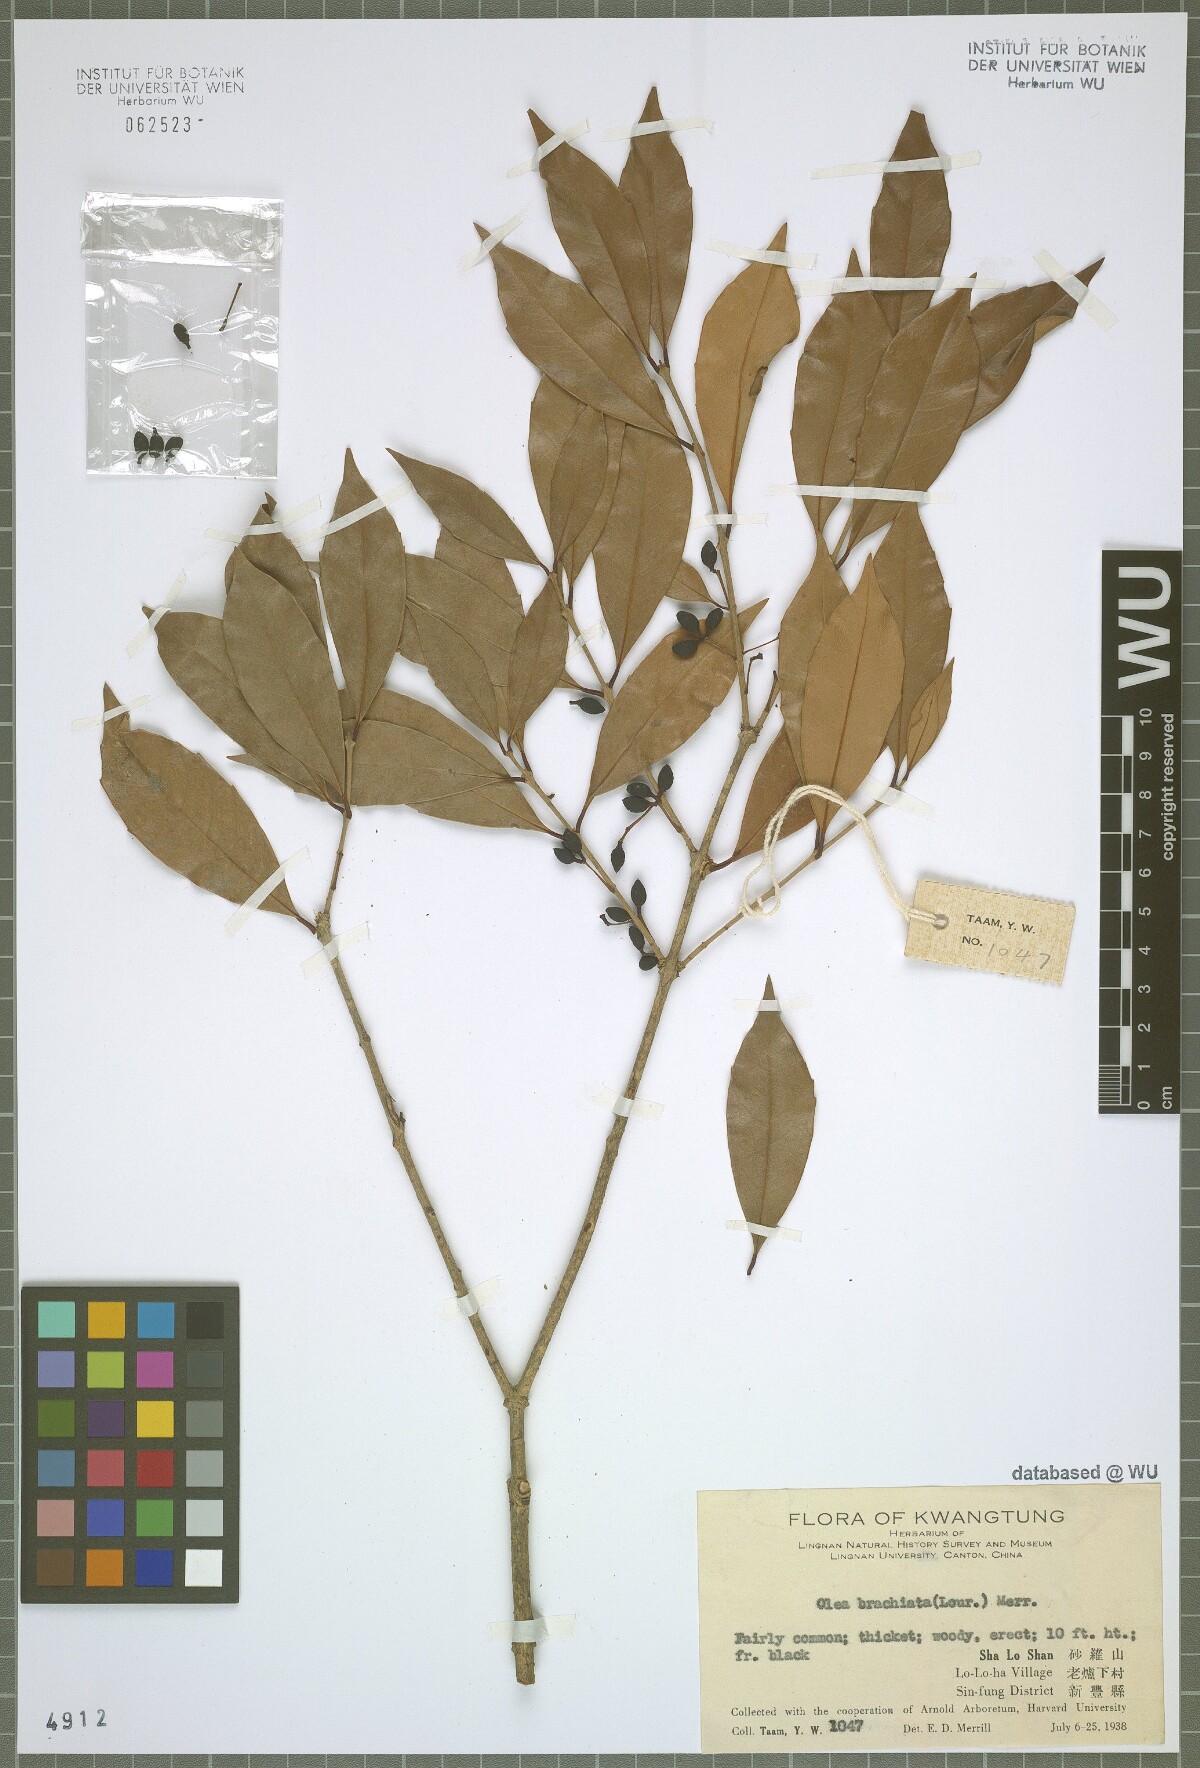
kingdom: Plantae
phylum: Tracheophyta
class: Magnoliopsida
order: Lamiales
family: Oleaceae
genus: Tetrapilus
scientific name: Tetrapilus brachiatus
